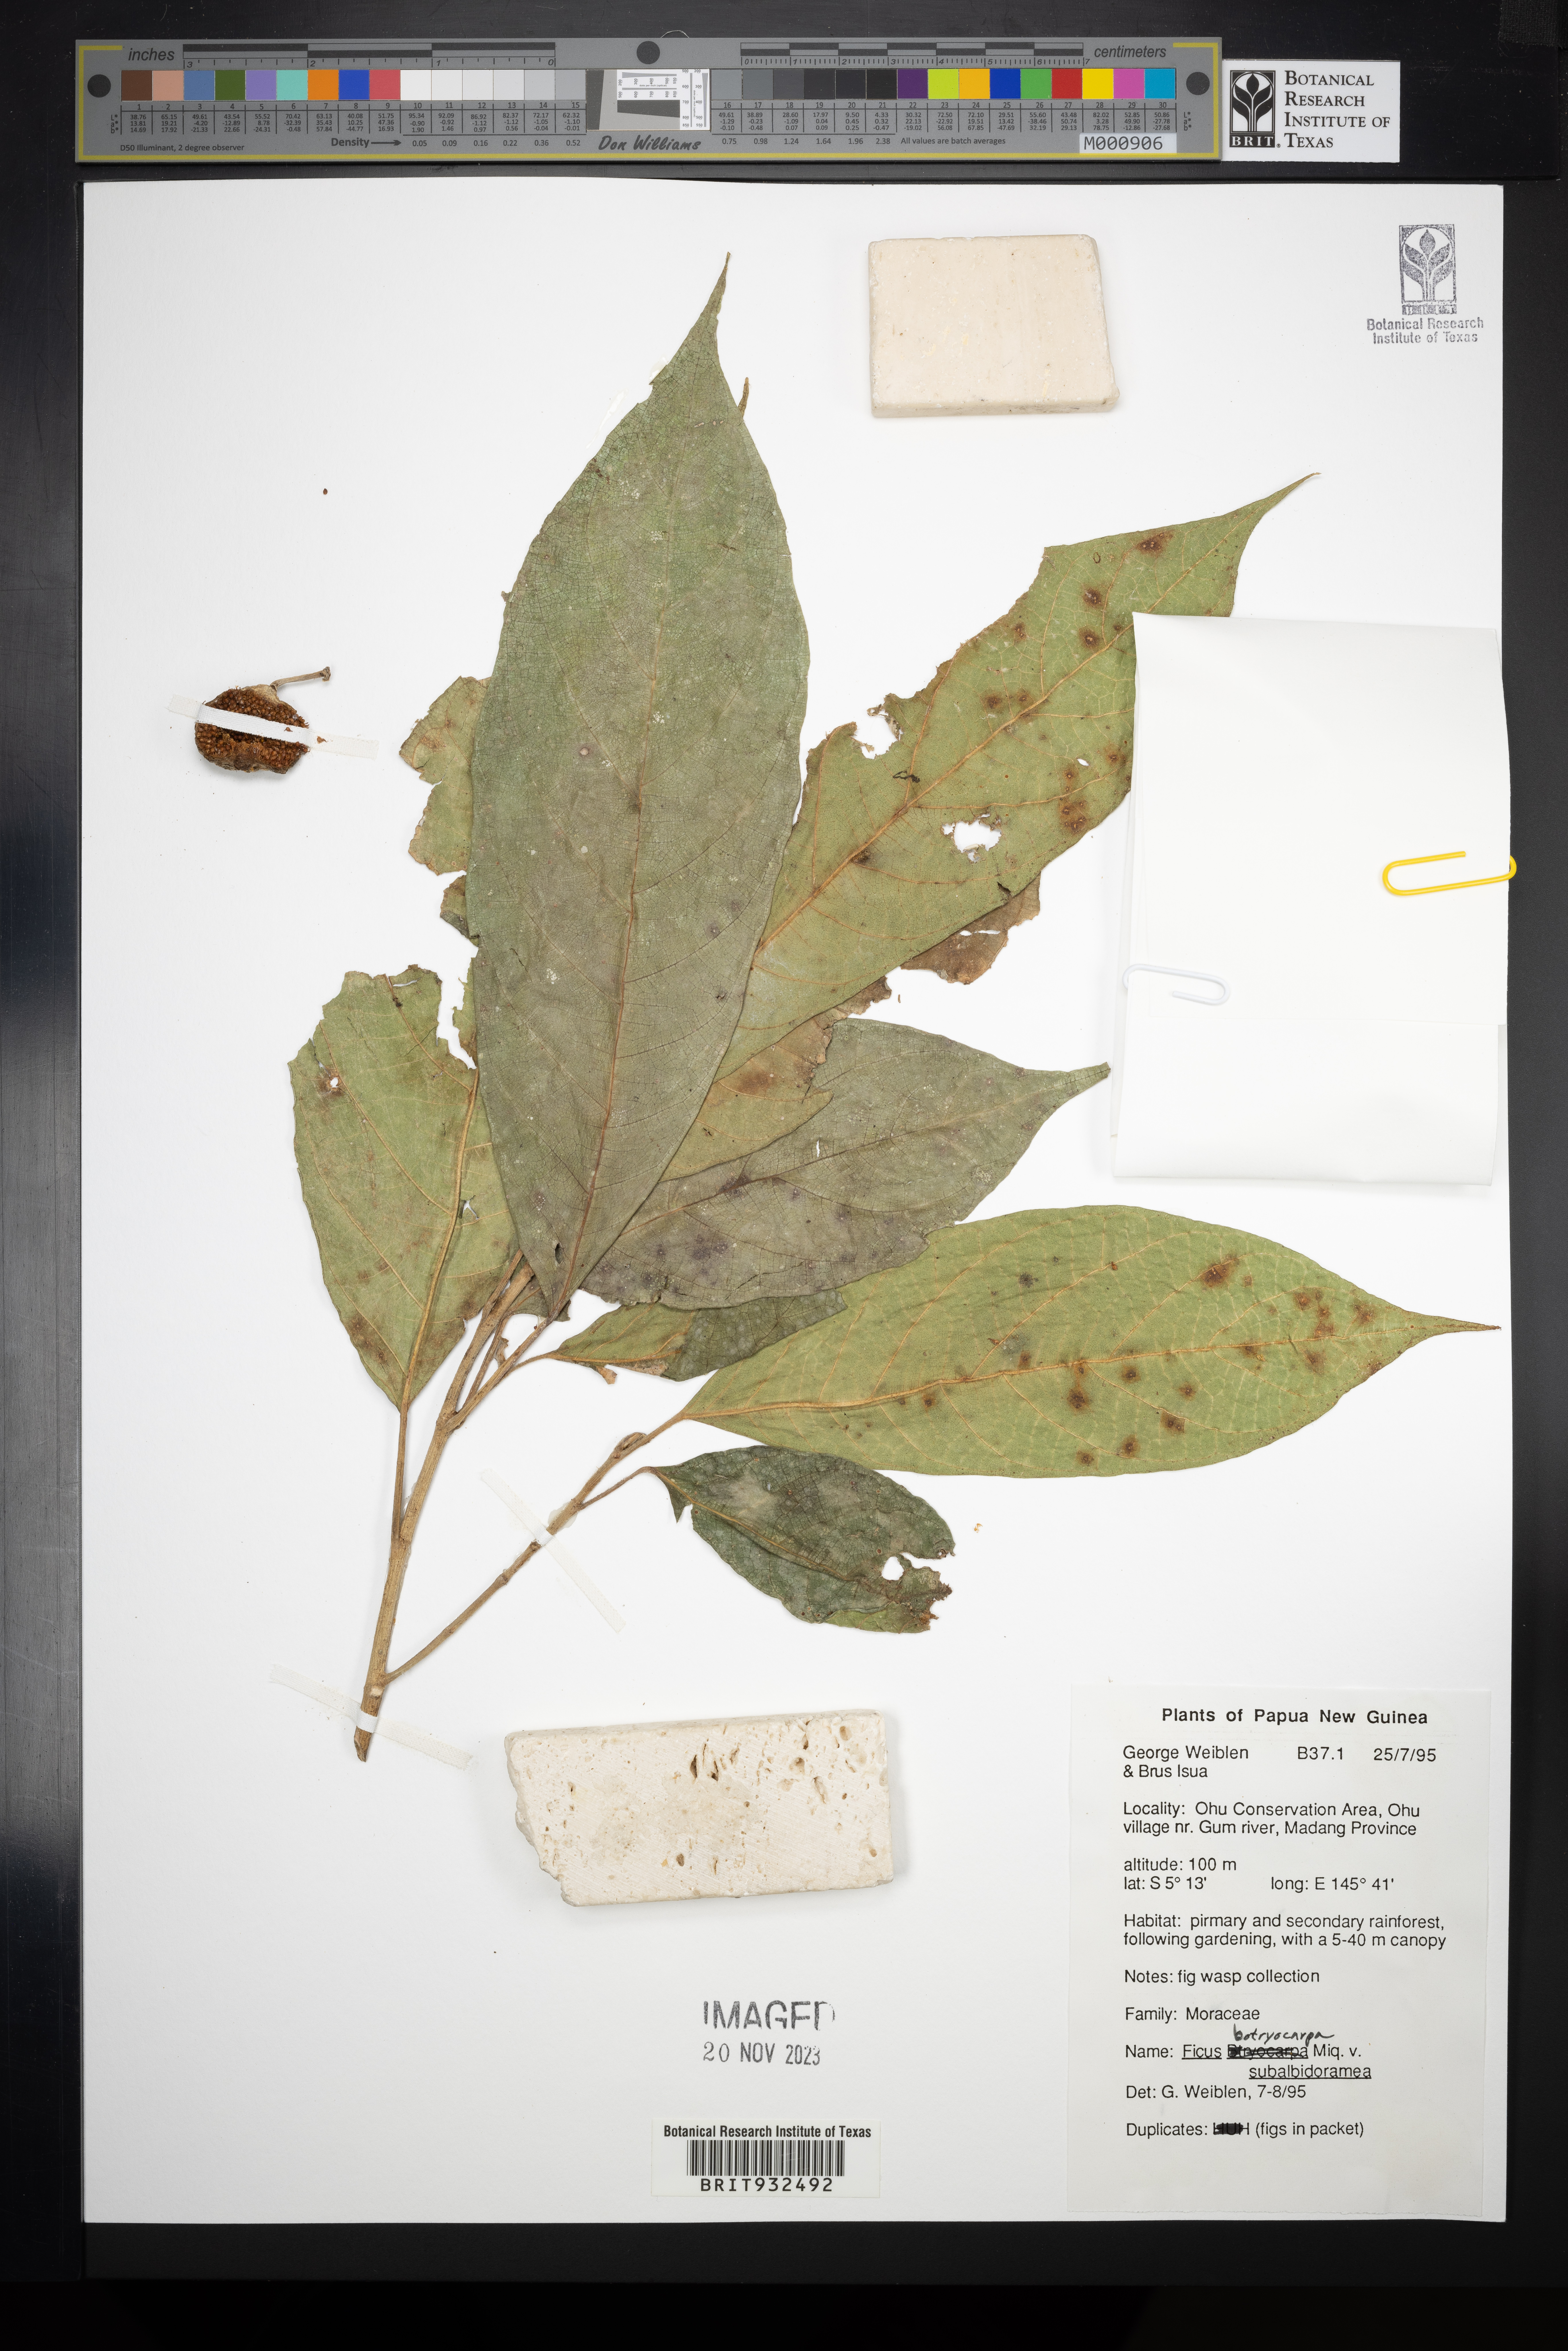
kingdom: Plantae
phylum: Tracheophyta
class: Magnoliopsida
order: Rosales
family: Moraceae
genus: Ficus
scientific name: Ficus botryocarpa
